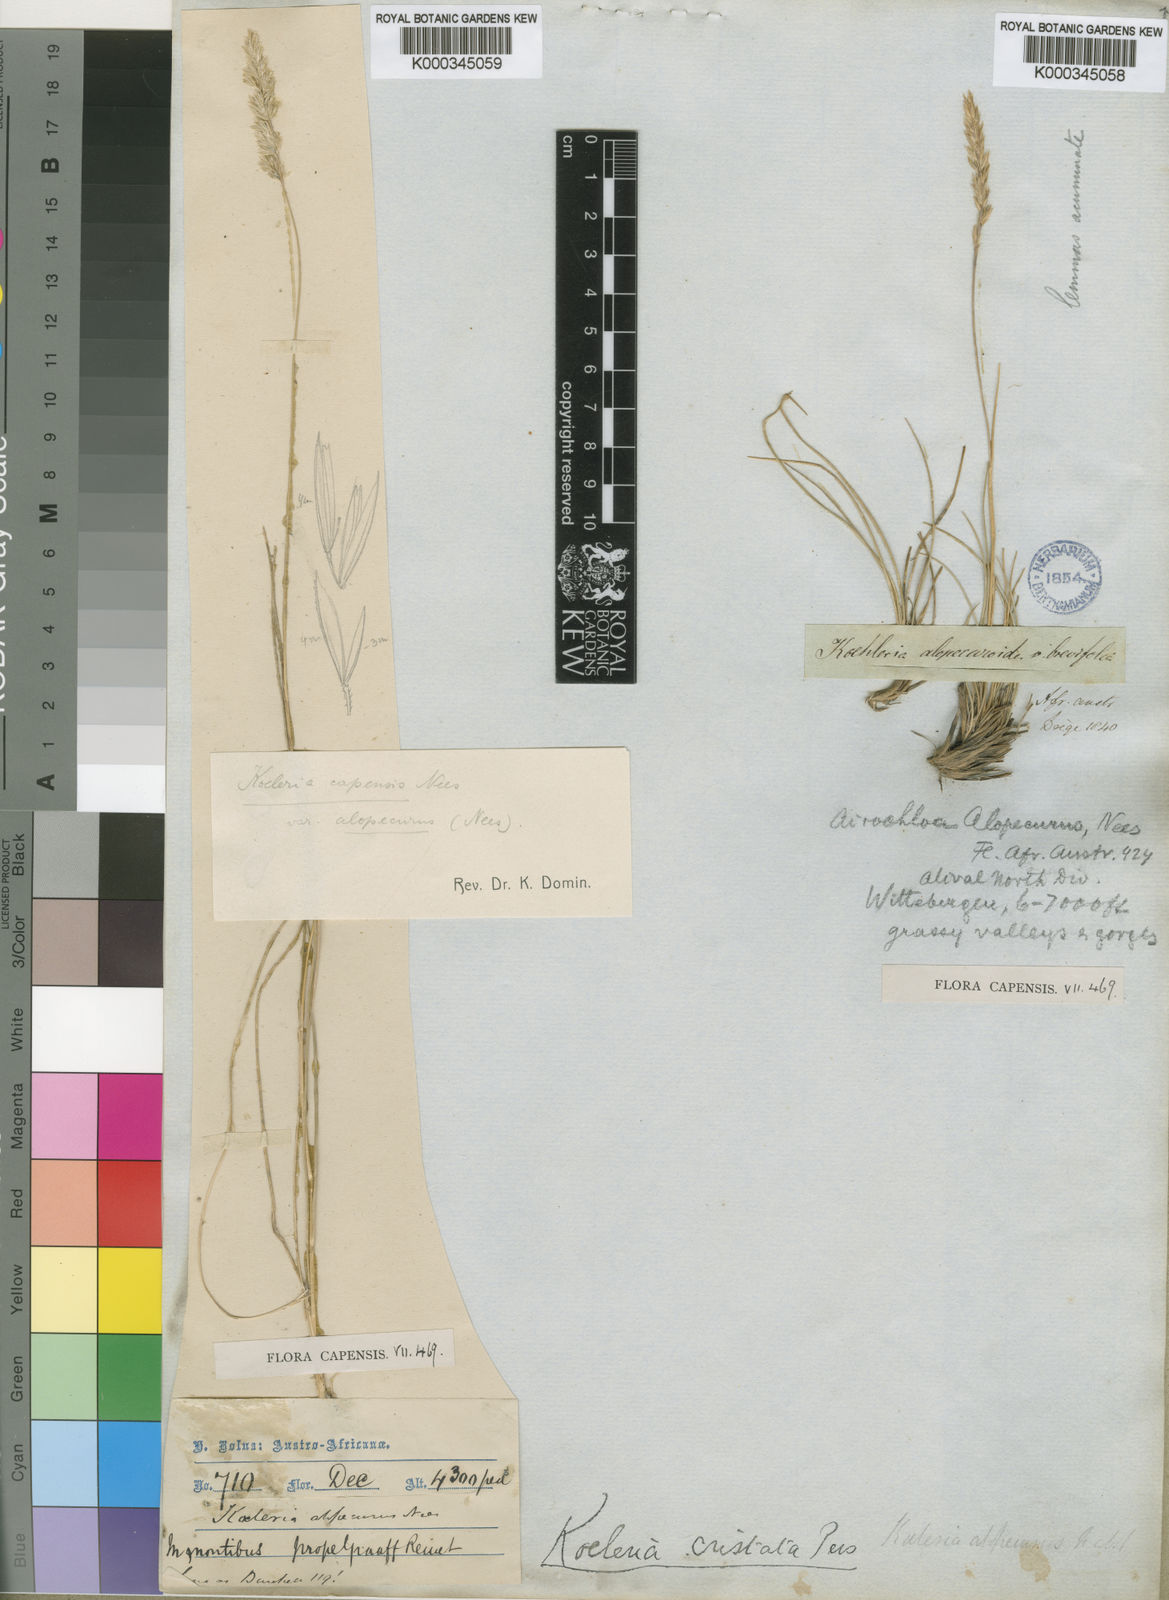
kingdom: Plantae
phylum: Tracheophyta
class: Liliopsida
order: Poales
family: Poaceae
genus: Koeleria
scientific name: Koeleria capensis
